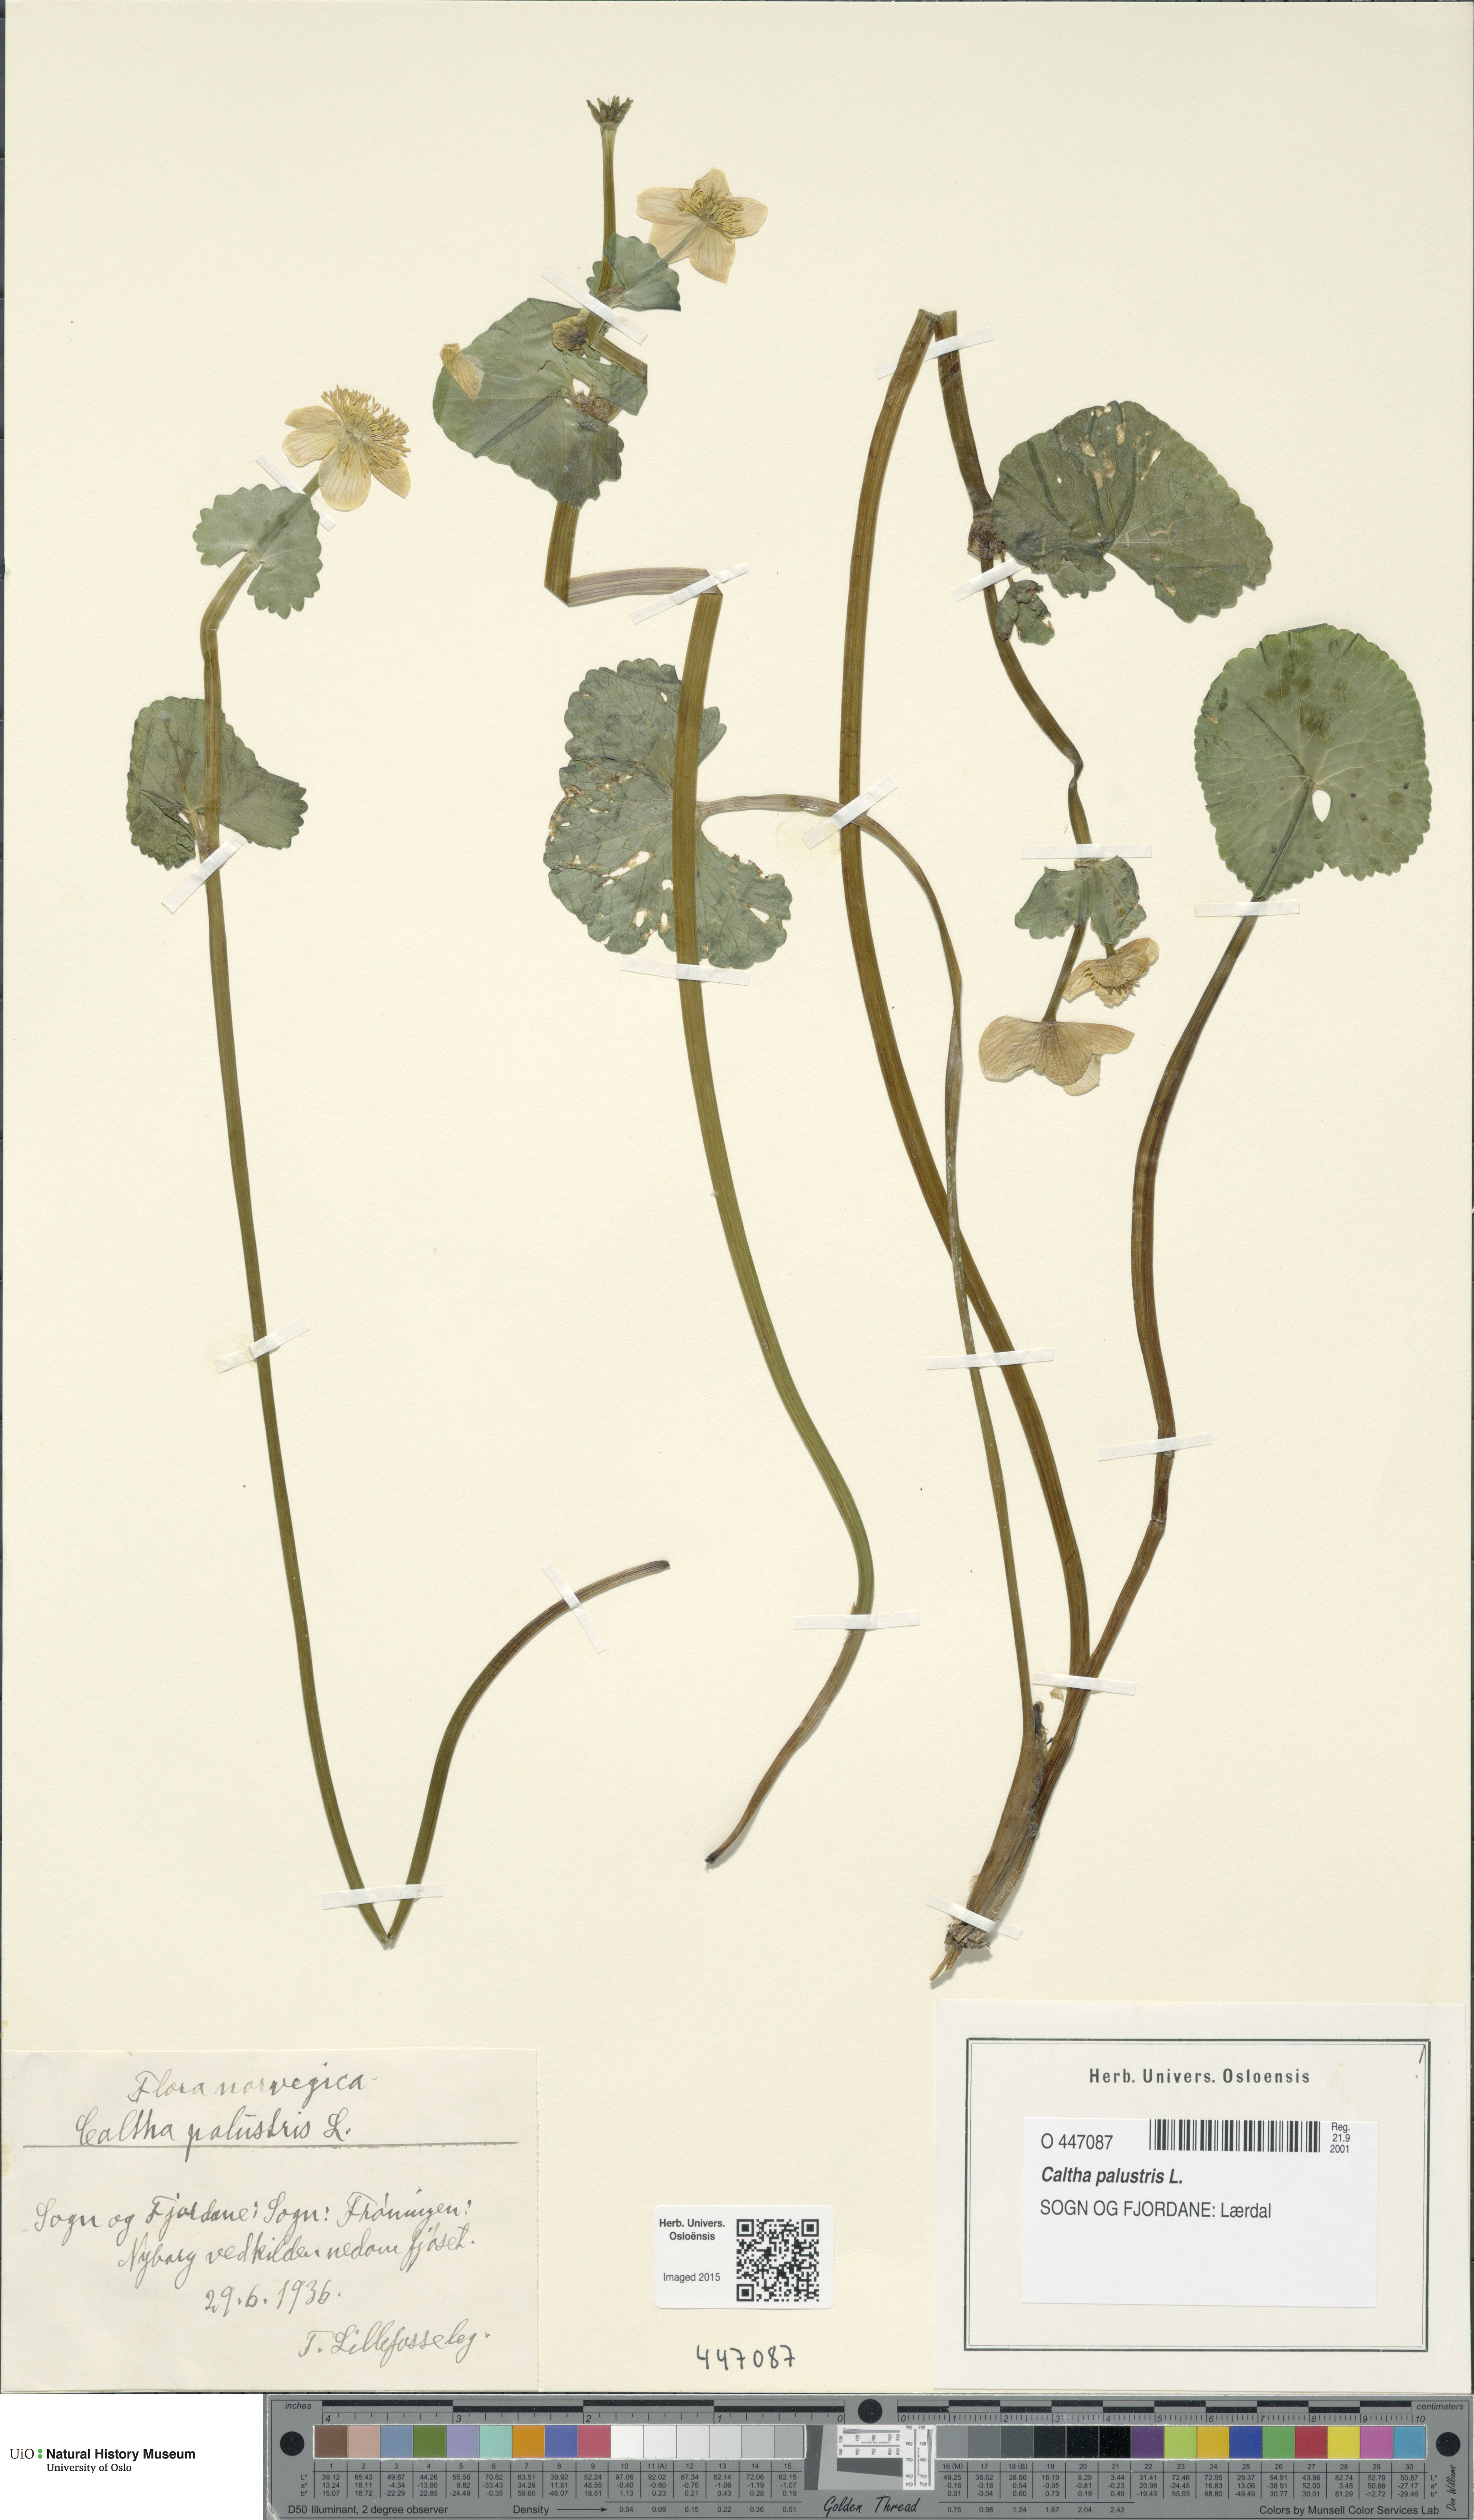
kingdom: Plantae
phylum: Tracheophyta
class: Magnoliopsida
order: Ranunculales
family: Ranunculaceae
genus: Caltha
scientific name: Caltha palustris
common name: Marsh marigold
